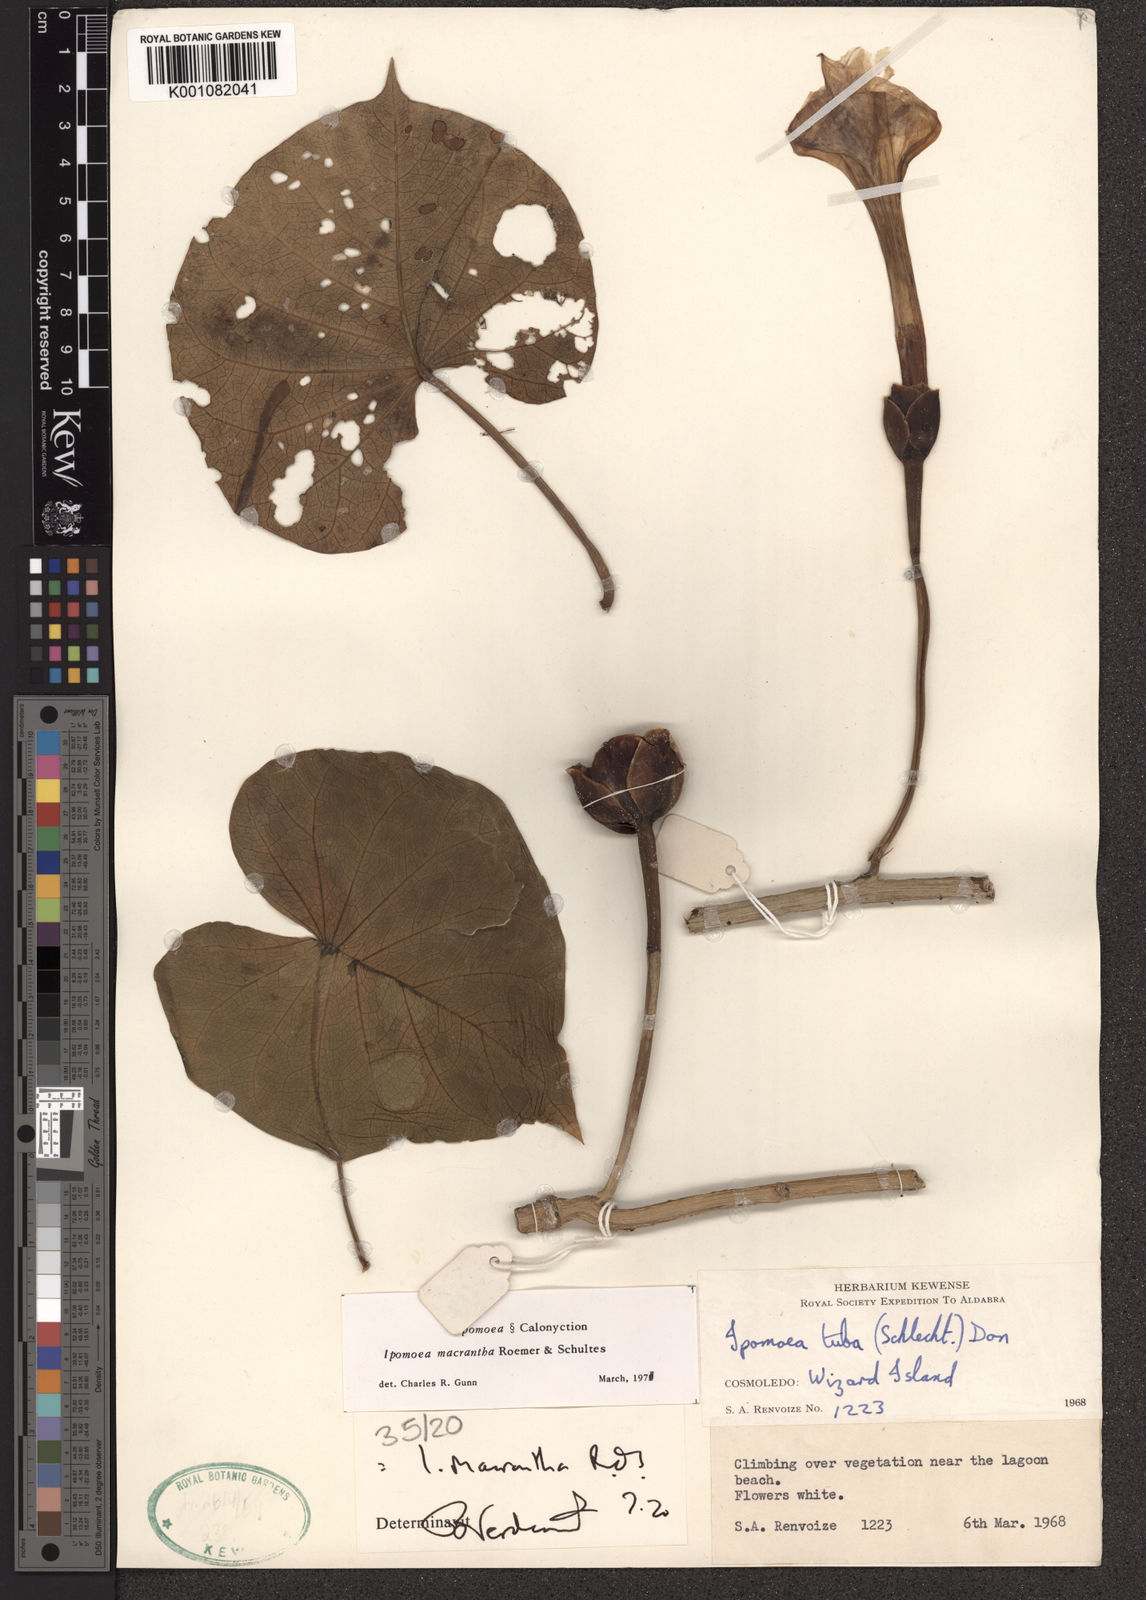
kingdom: Plantae
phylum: Tracheophyta
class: Magnoliopsida
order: Solanales
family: Convolvulaceae
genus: Ipomoea
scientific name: Ipomoea violacea
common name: Beach moonflower
